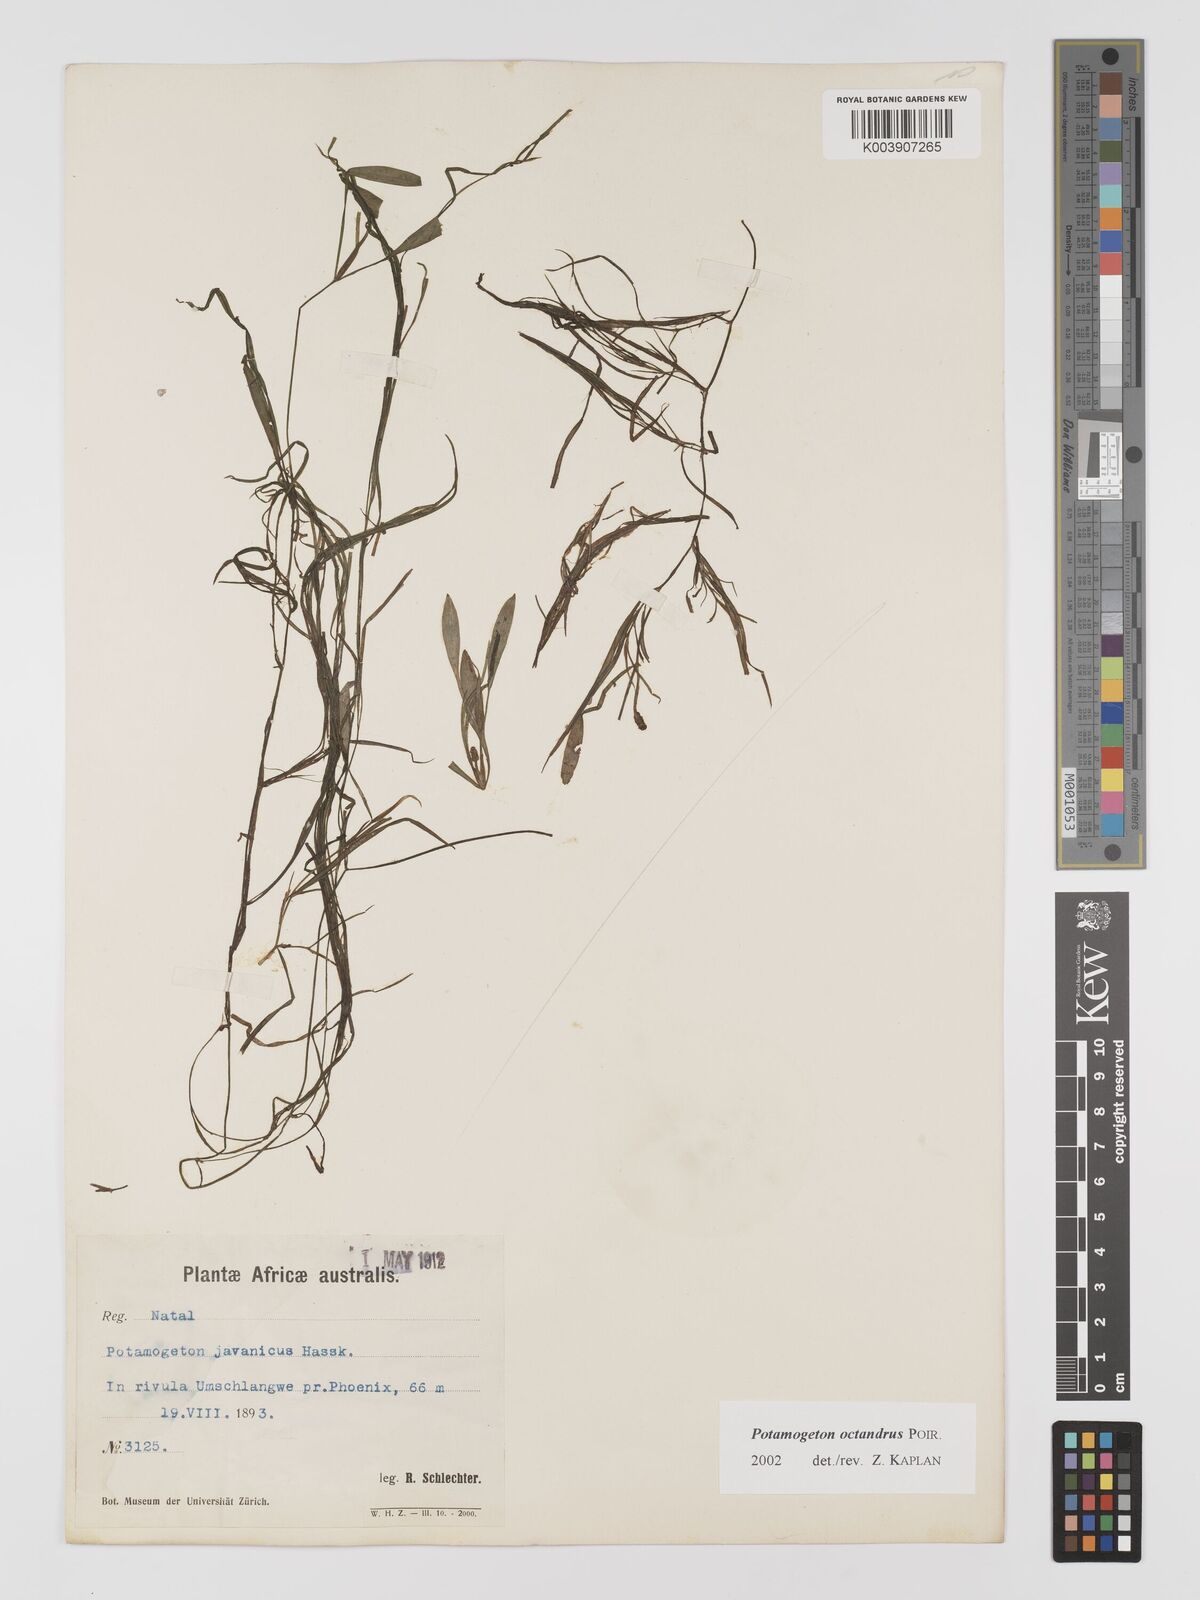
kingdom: Plantae
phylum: Tracheophyta
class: Liliopsida
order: Alismatales
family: Potamogetonaceae
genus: Potamogeton
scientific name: Potamogeton tenuicaulis
